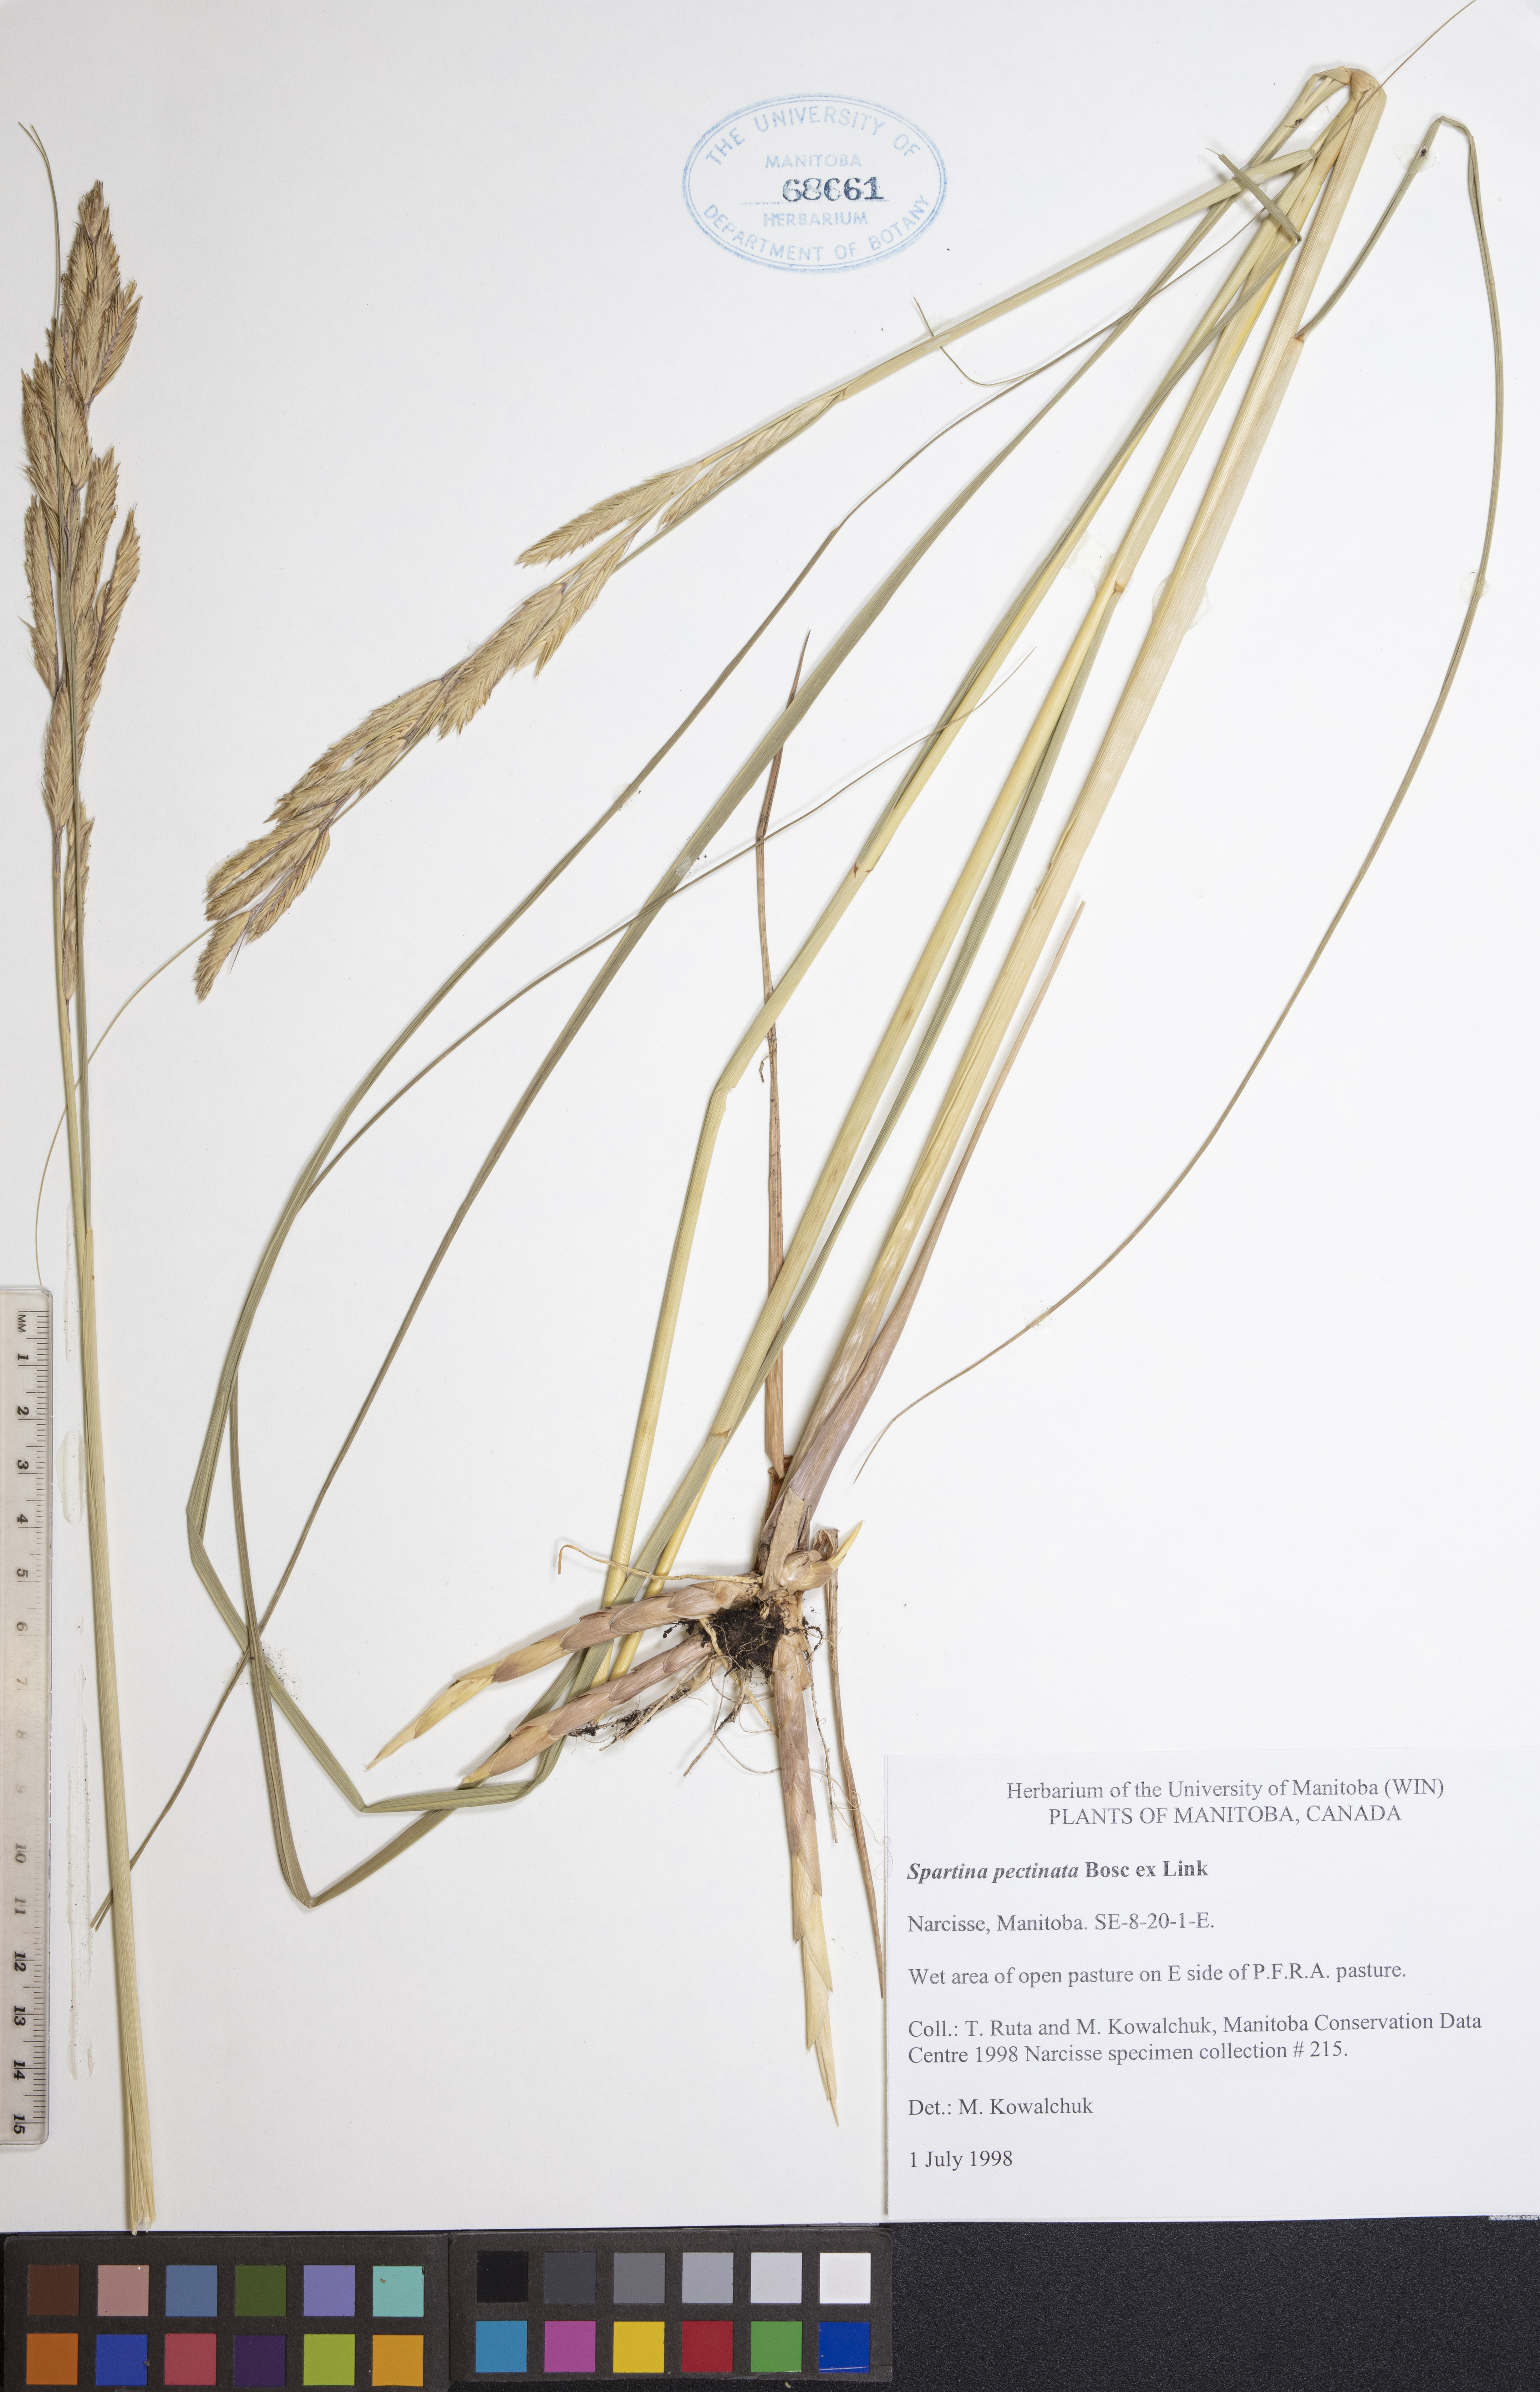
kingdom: Plantae
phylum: Tracheophyta
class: Liliopsida
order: Poales
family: Poaceae
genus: Sporobolus
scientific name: Sporobolus michauxianus
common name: Freshwater cordgrass
